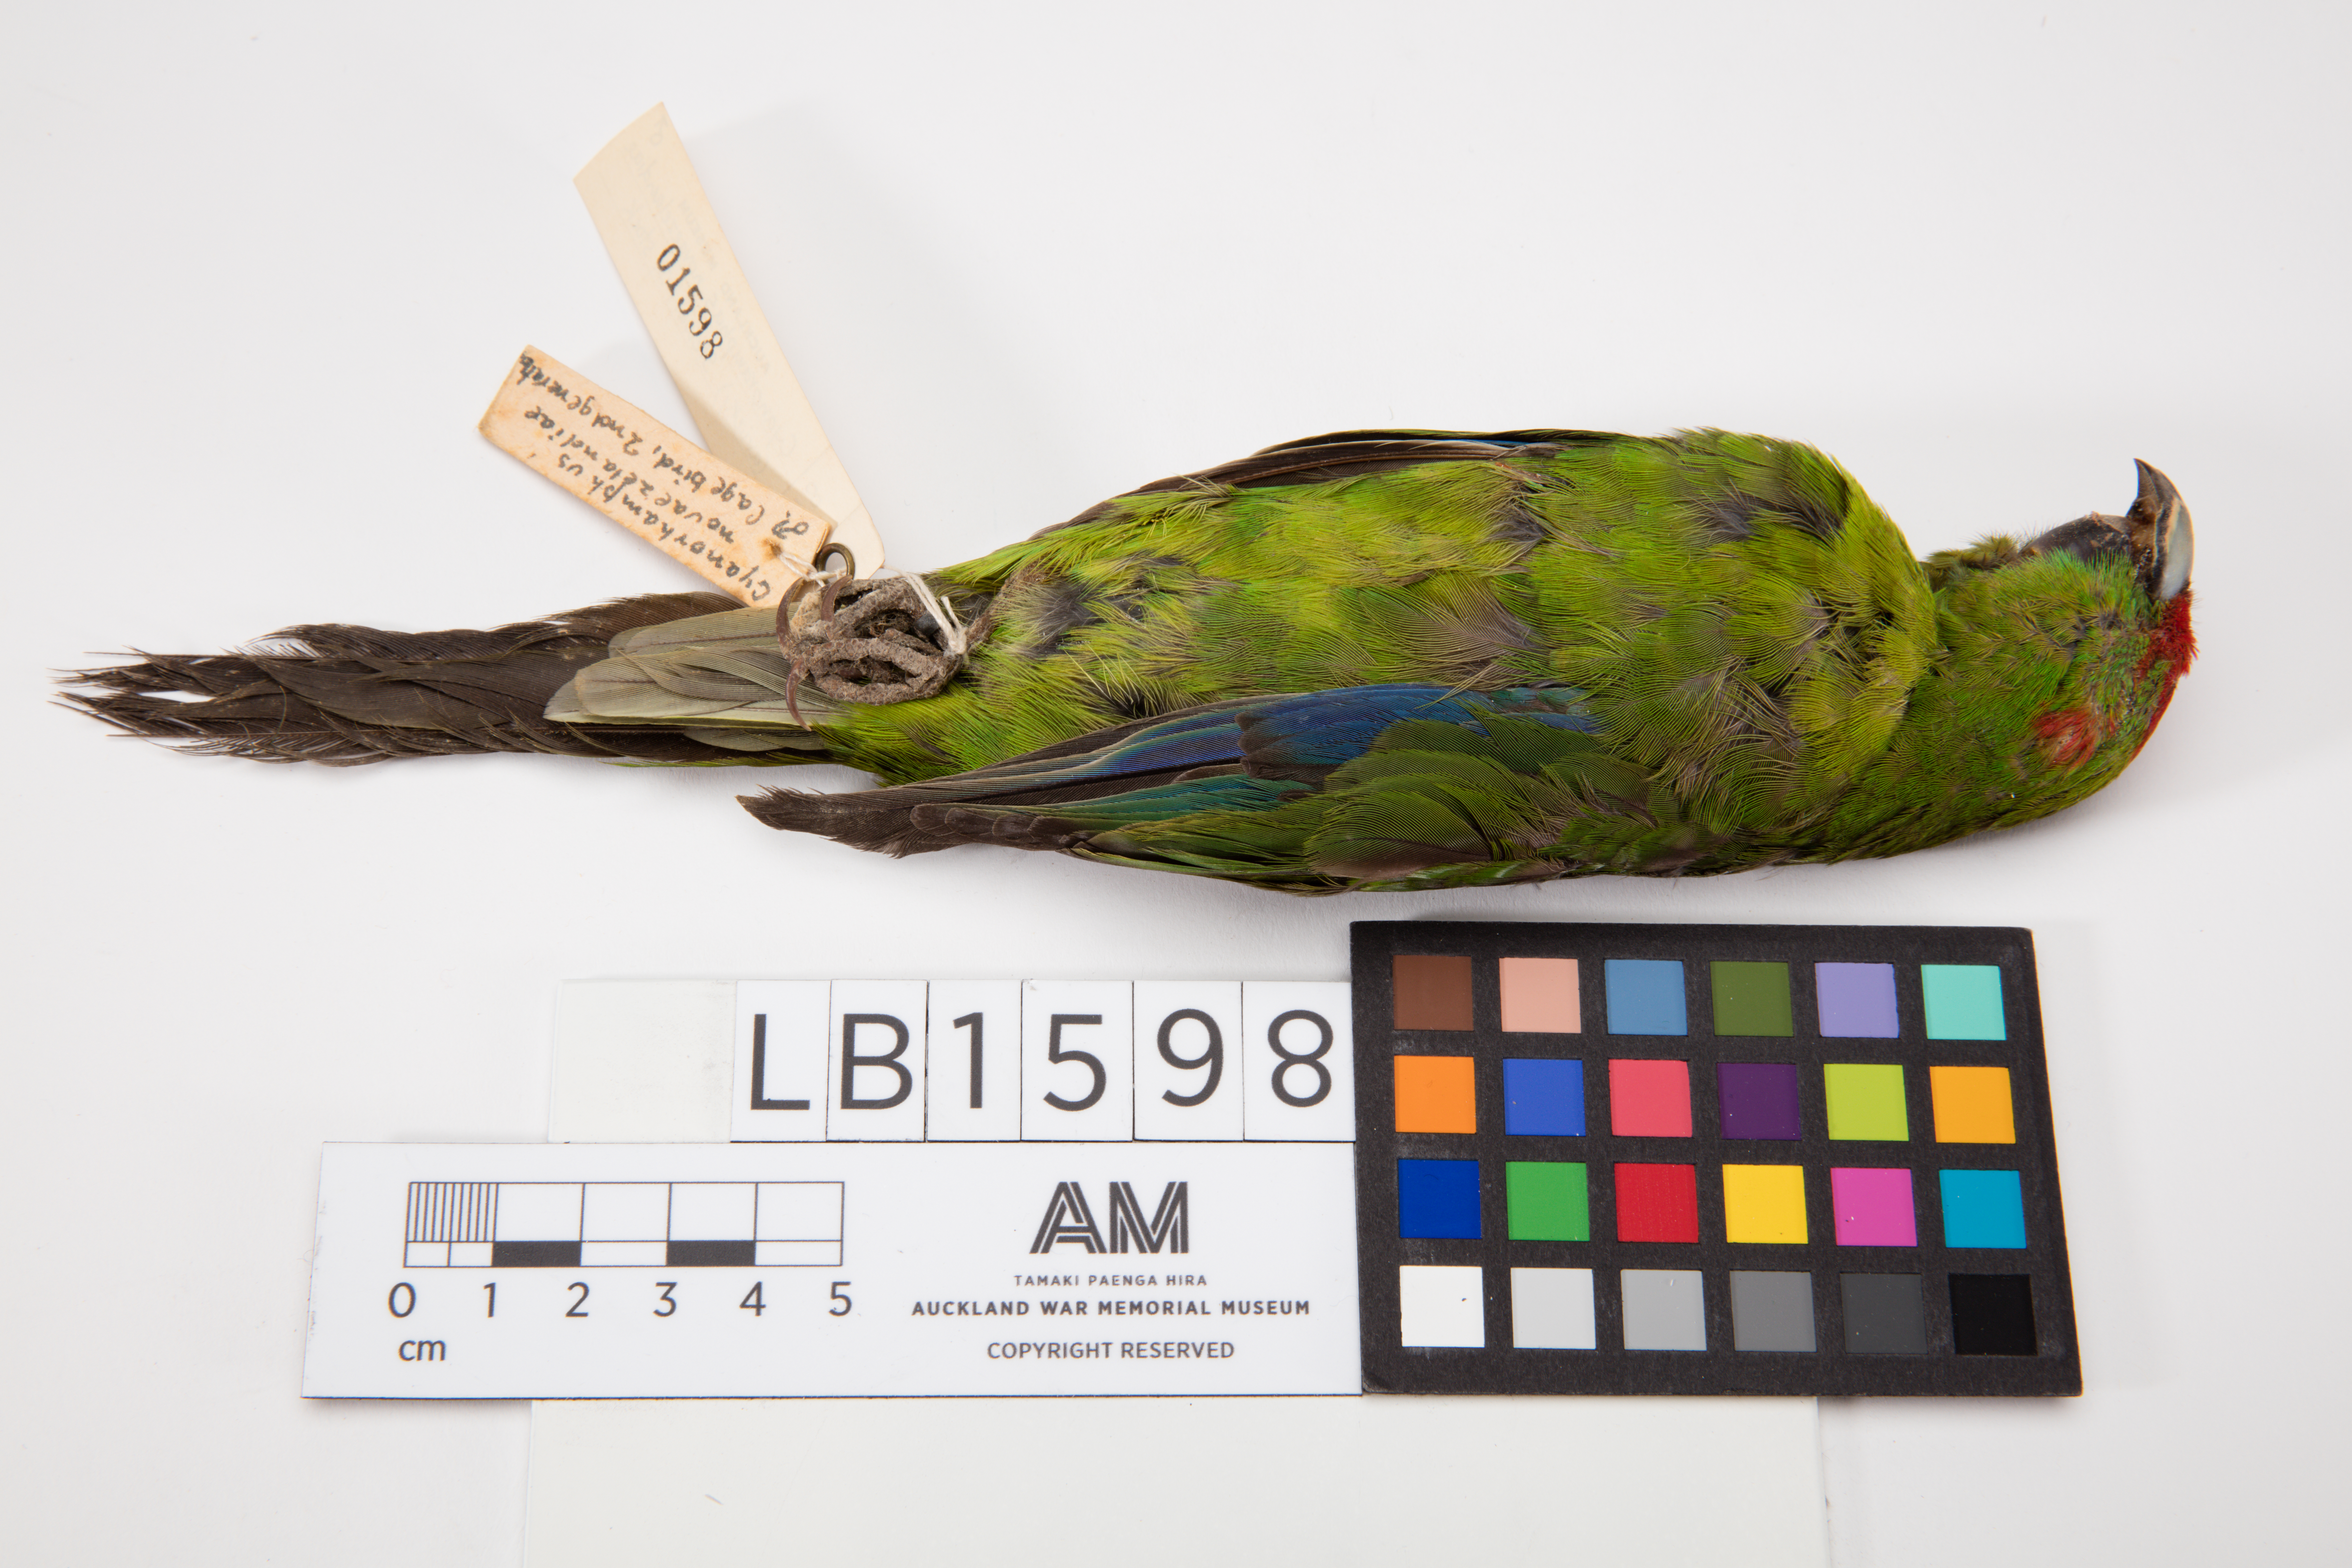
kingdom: Animalia
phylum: Chordata
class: Aves
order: Psittaciformes
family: Psittacidae
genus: Cyanoramphus
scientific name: Cyanoramphus novaezelandiae
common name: Red-fronted parakeet
